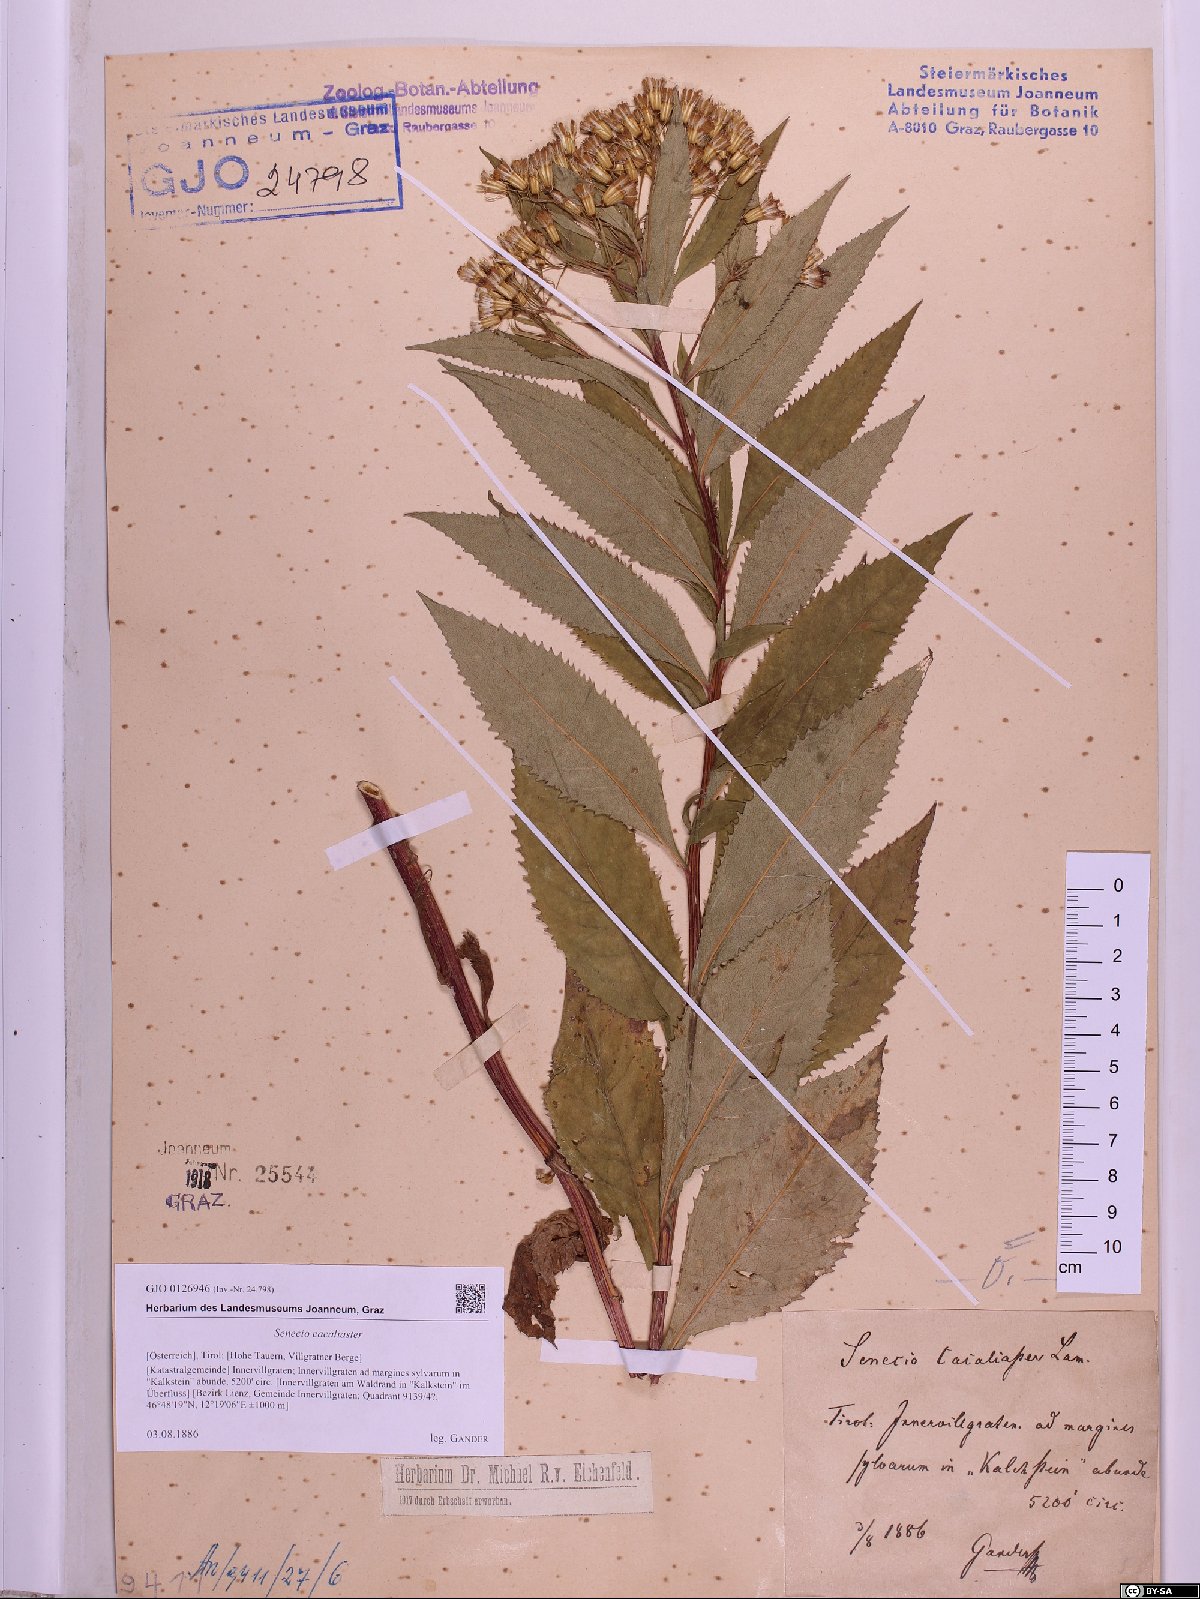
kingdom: Plantae
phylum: Tracheophyta
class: Magnoliopsida
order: Asterales
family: Asteraceae
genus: Senecio
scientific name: Senecio cacaliaster
